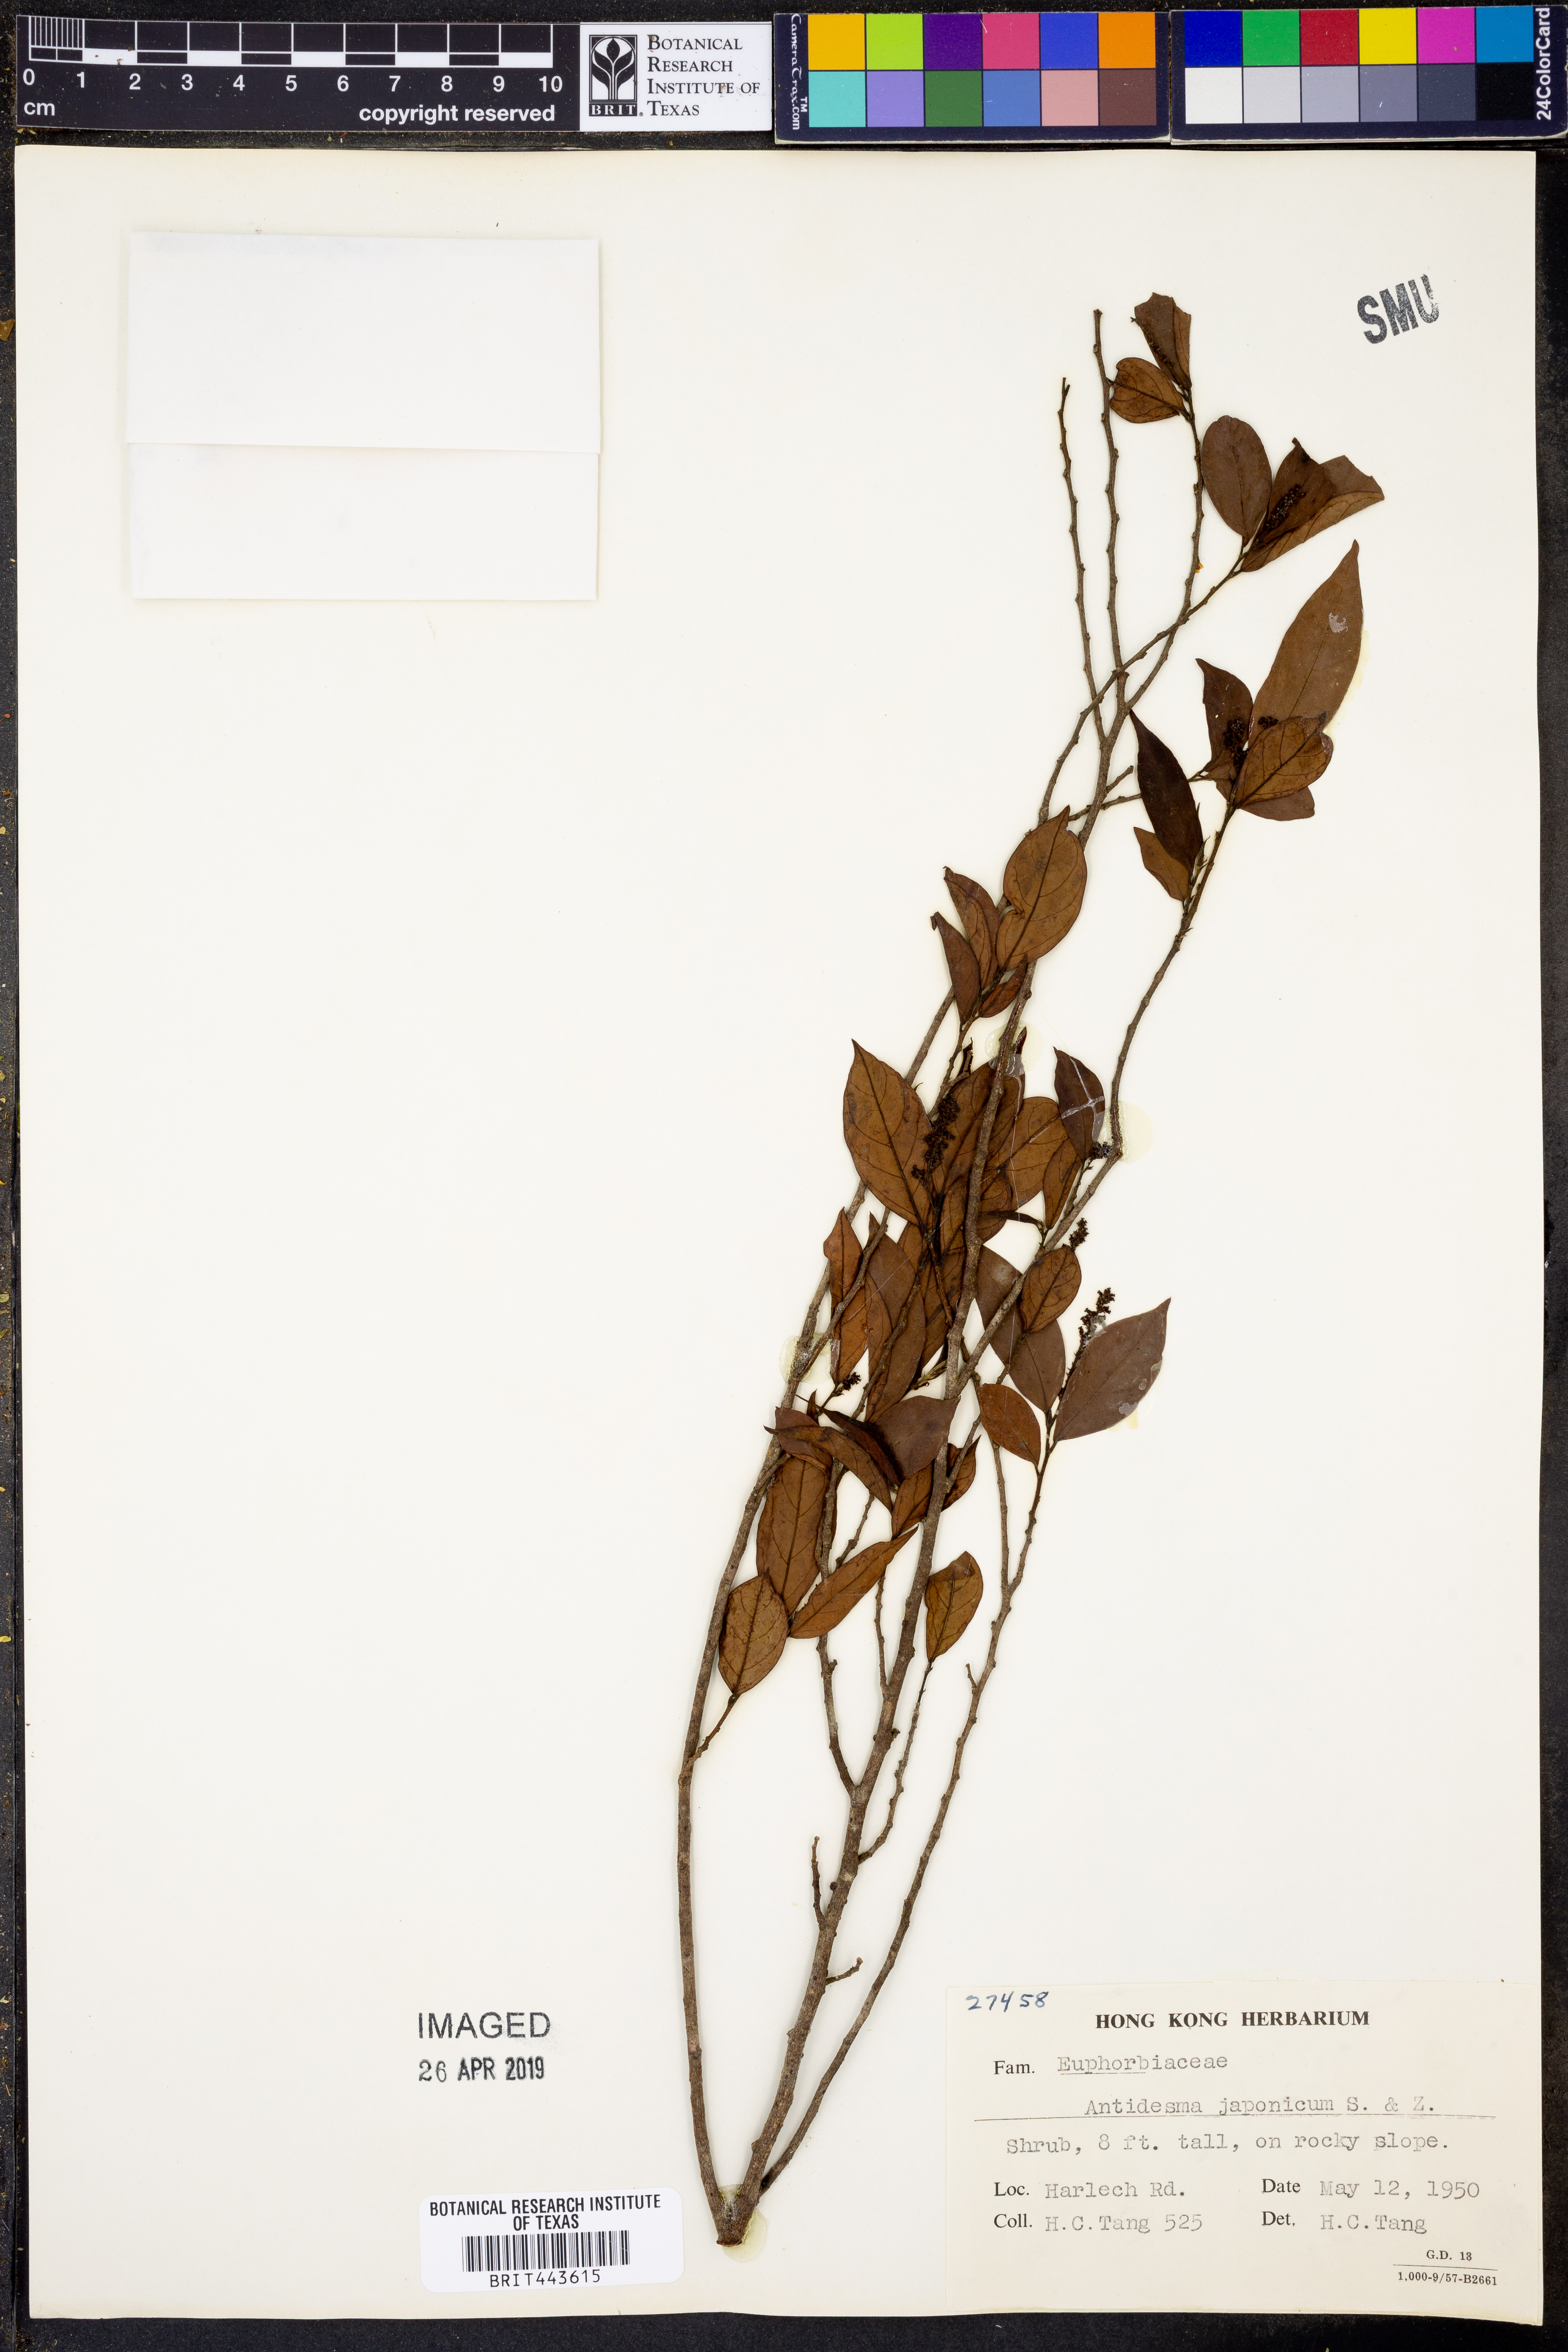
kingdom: Plantae
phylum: Tracheophyta
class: Magnoliopsida
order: Malpighiales
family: Phyllanthaceae
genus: Antidesma
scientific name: Antidesma japonicum
